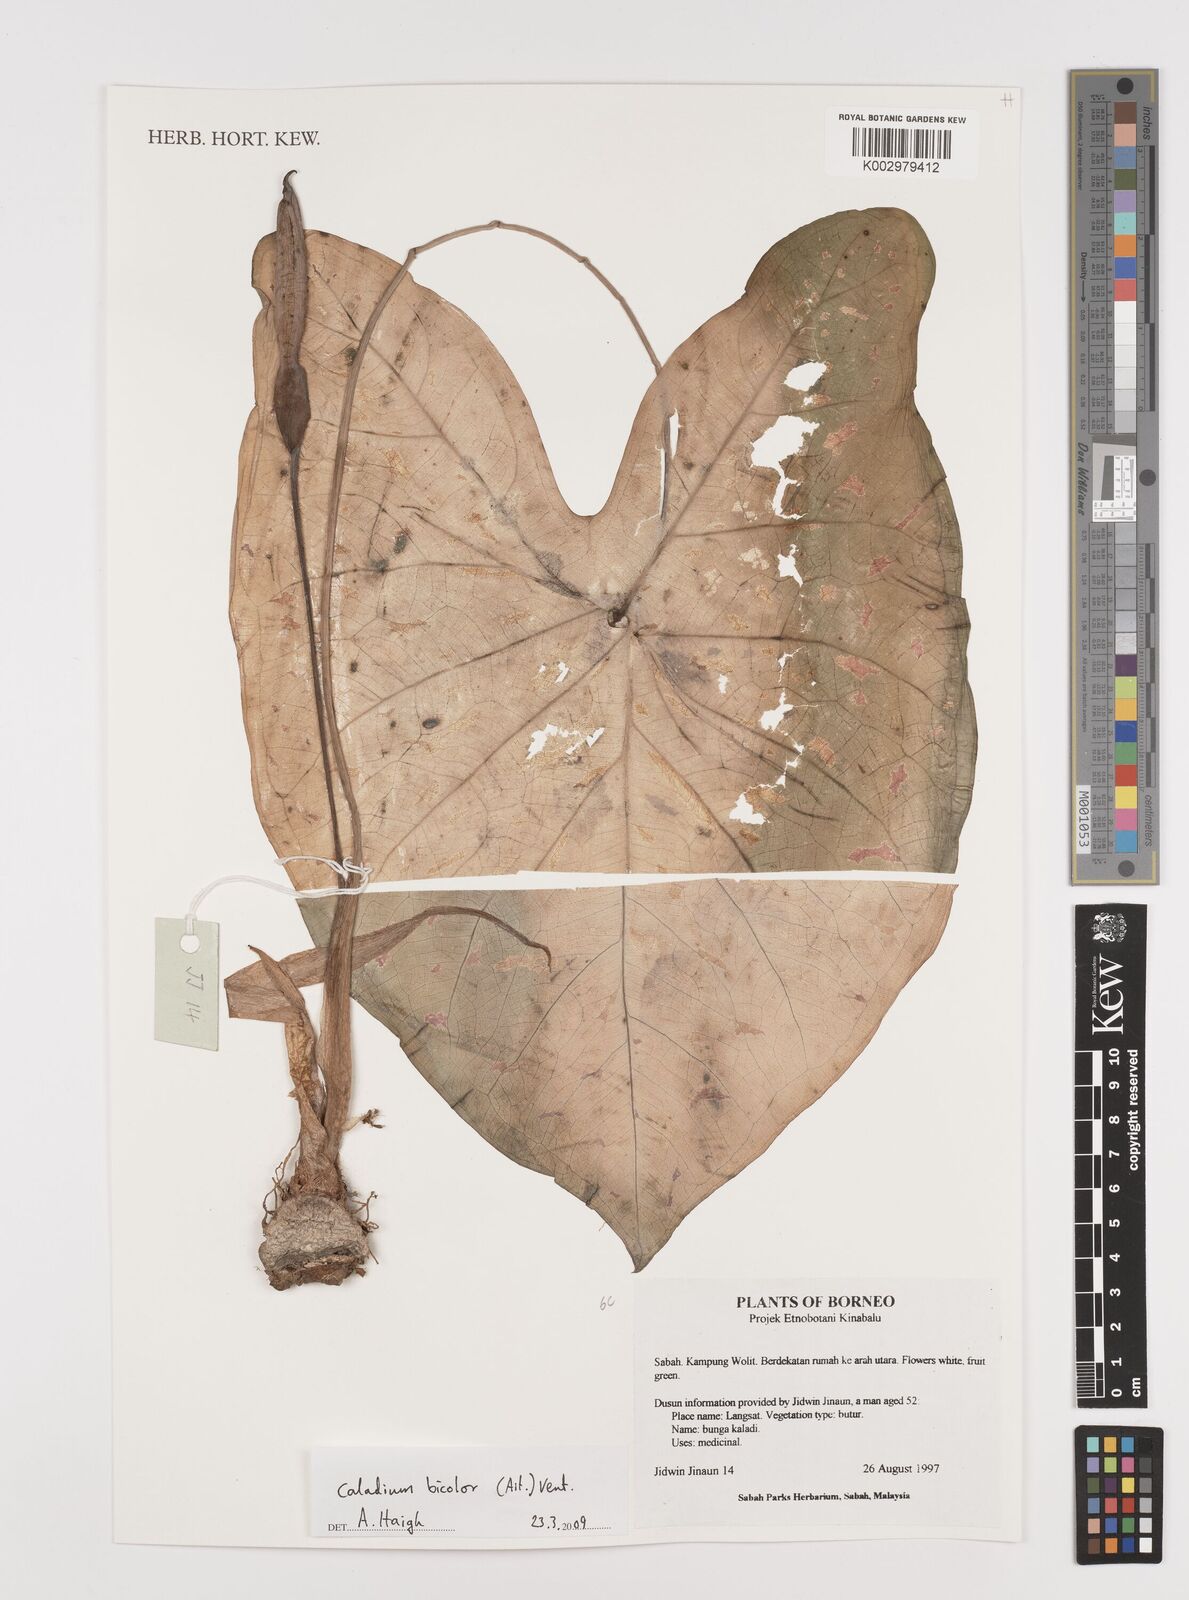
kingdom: Plantae
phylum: Tracheophyta
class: Liliopsida
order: Alismatales
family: Araceae
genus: Caladium
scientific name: Caladium bicolor
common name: Artist's pallet
